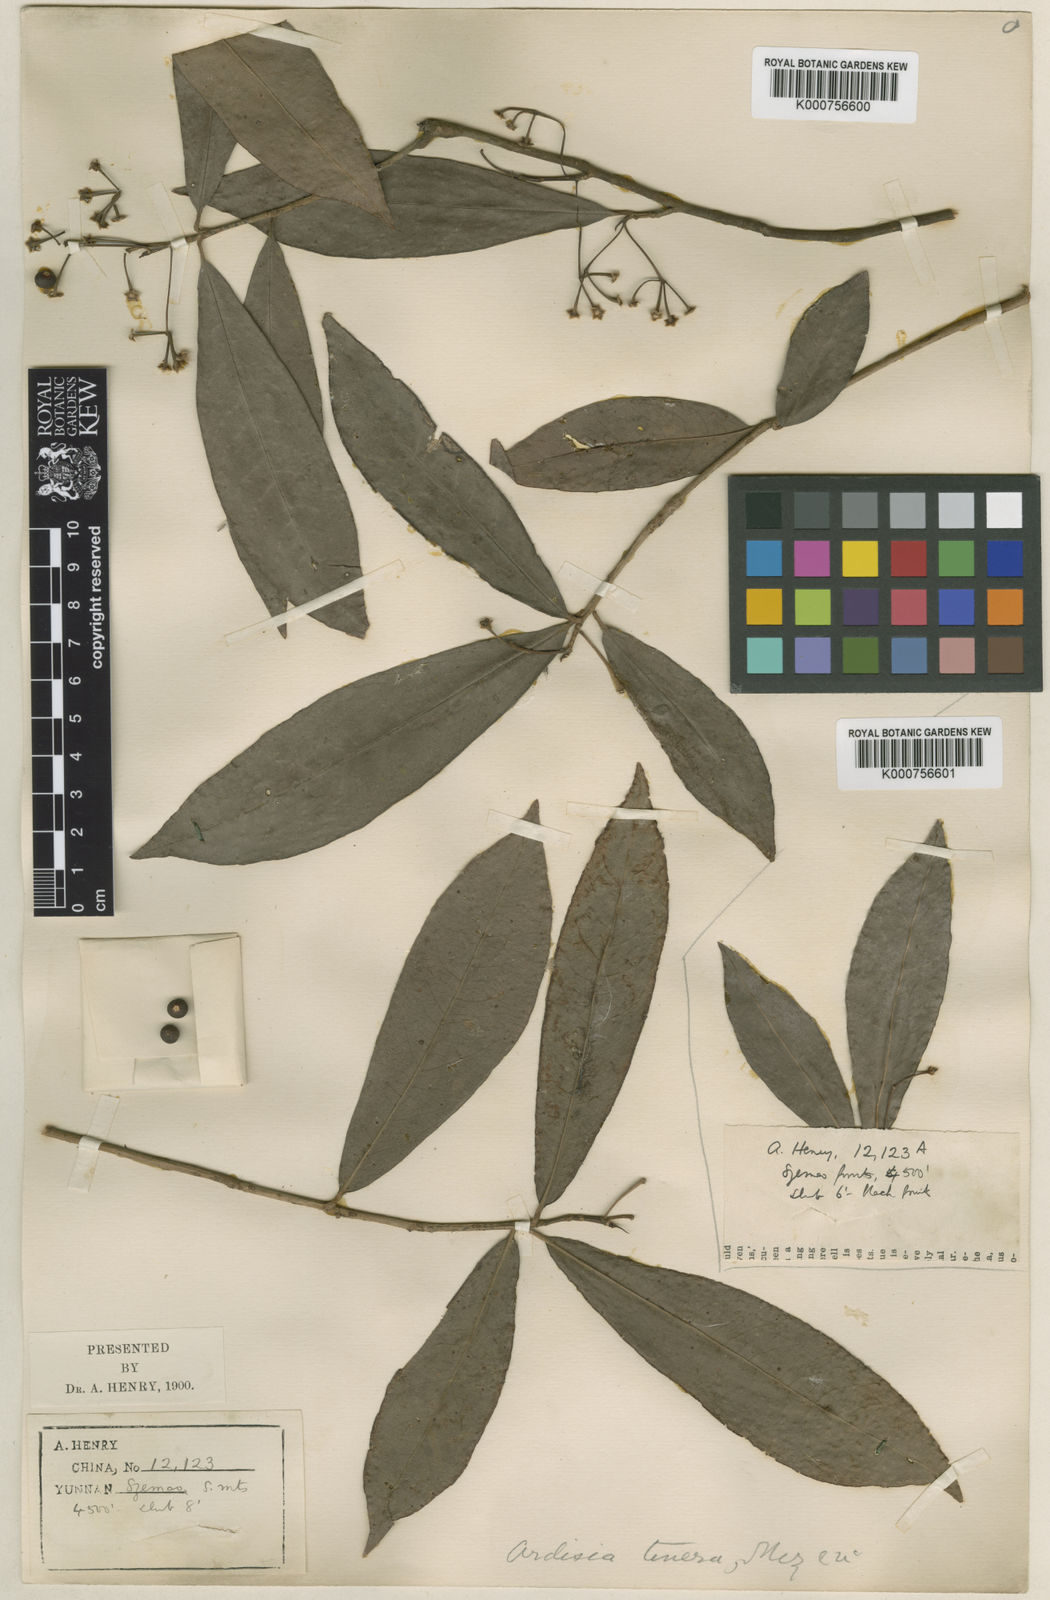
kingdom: Plantae
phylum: Tracheophyta
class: Magnoliopsida
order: Ericales
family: Primulaceae
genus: Ardisia
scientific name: Ardisia floribunda
